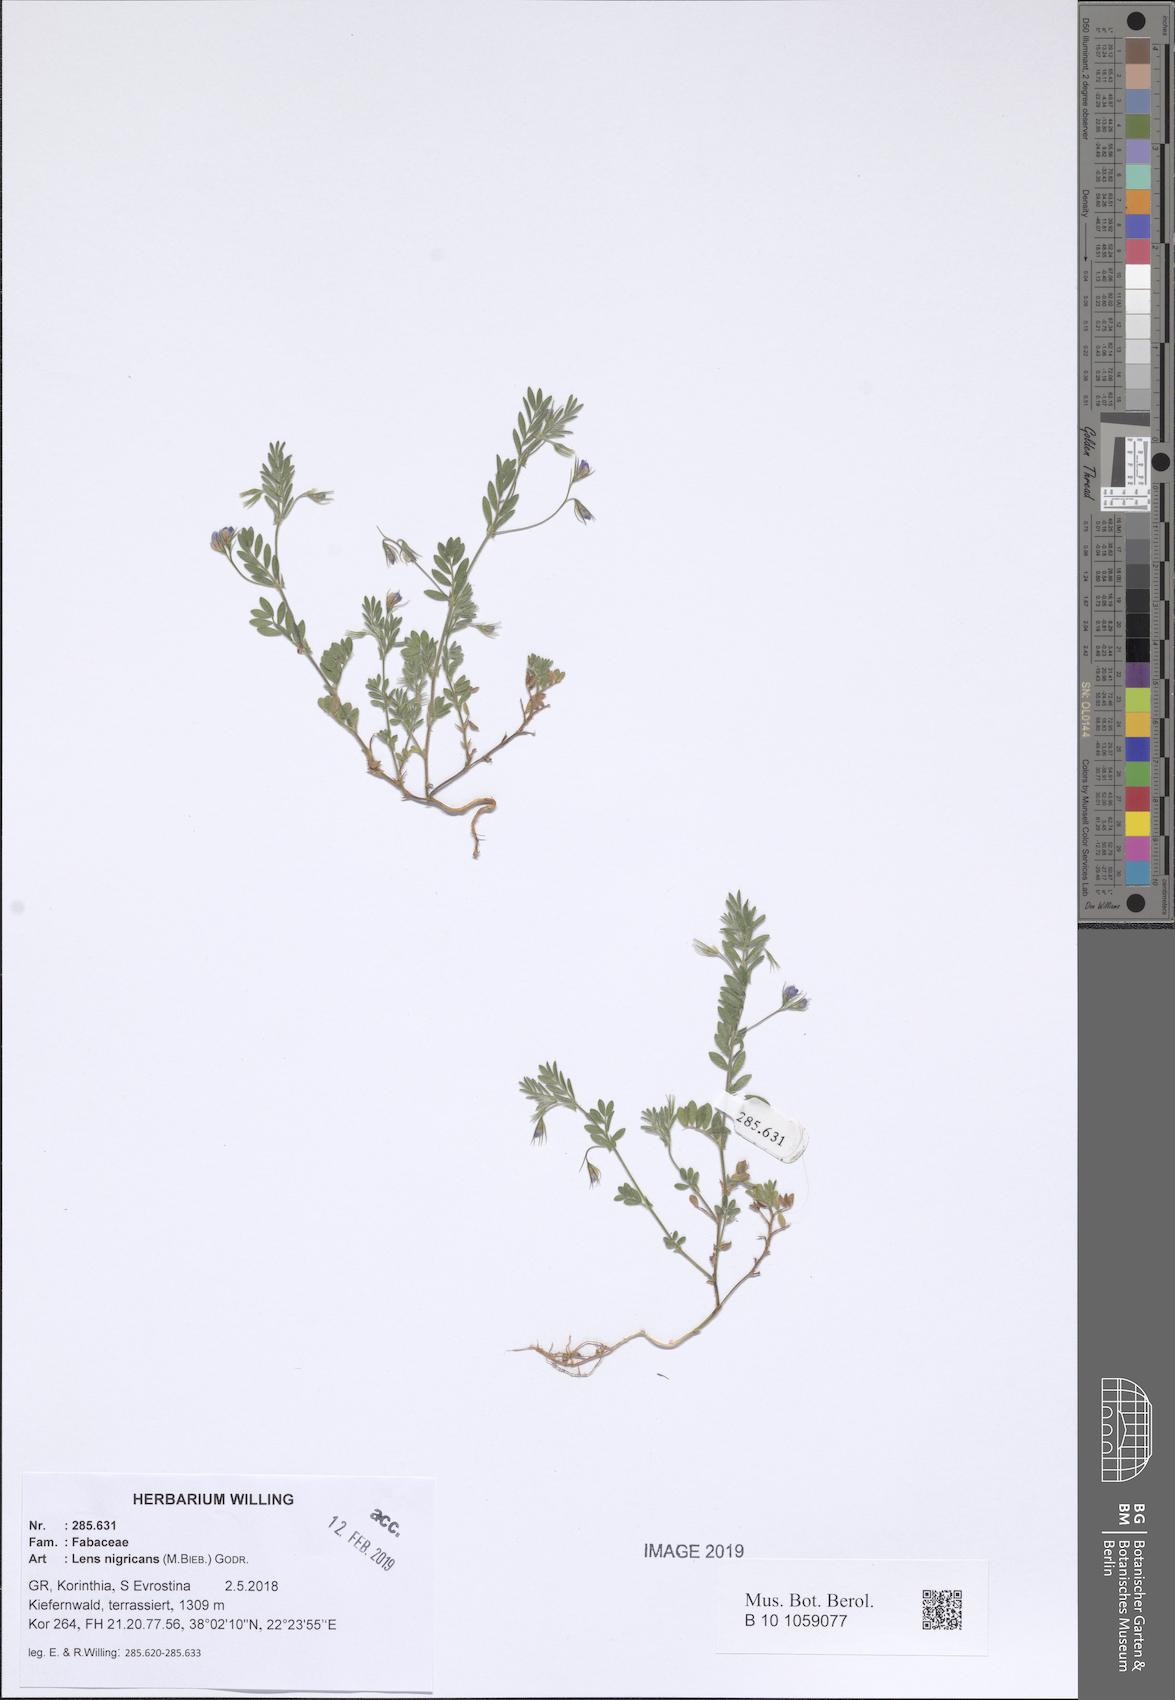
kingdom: Plantae
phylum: Tracheophyta
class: Magnoliopsida
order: Fabales
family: Fabaceae
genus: Vicia
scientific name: Vicia lentoides
